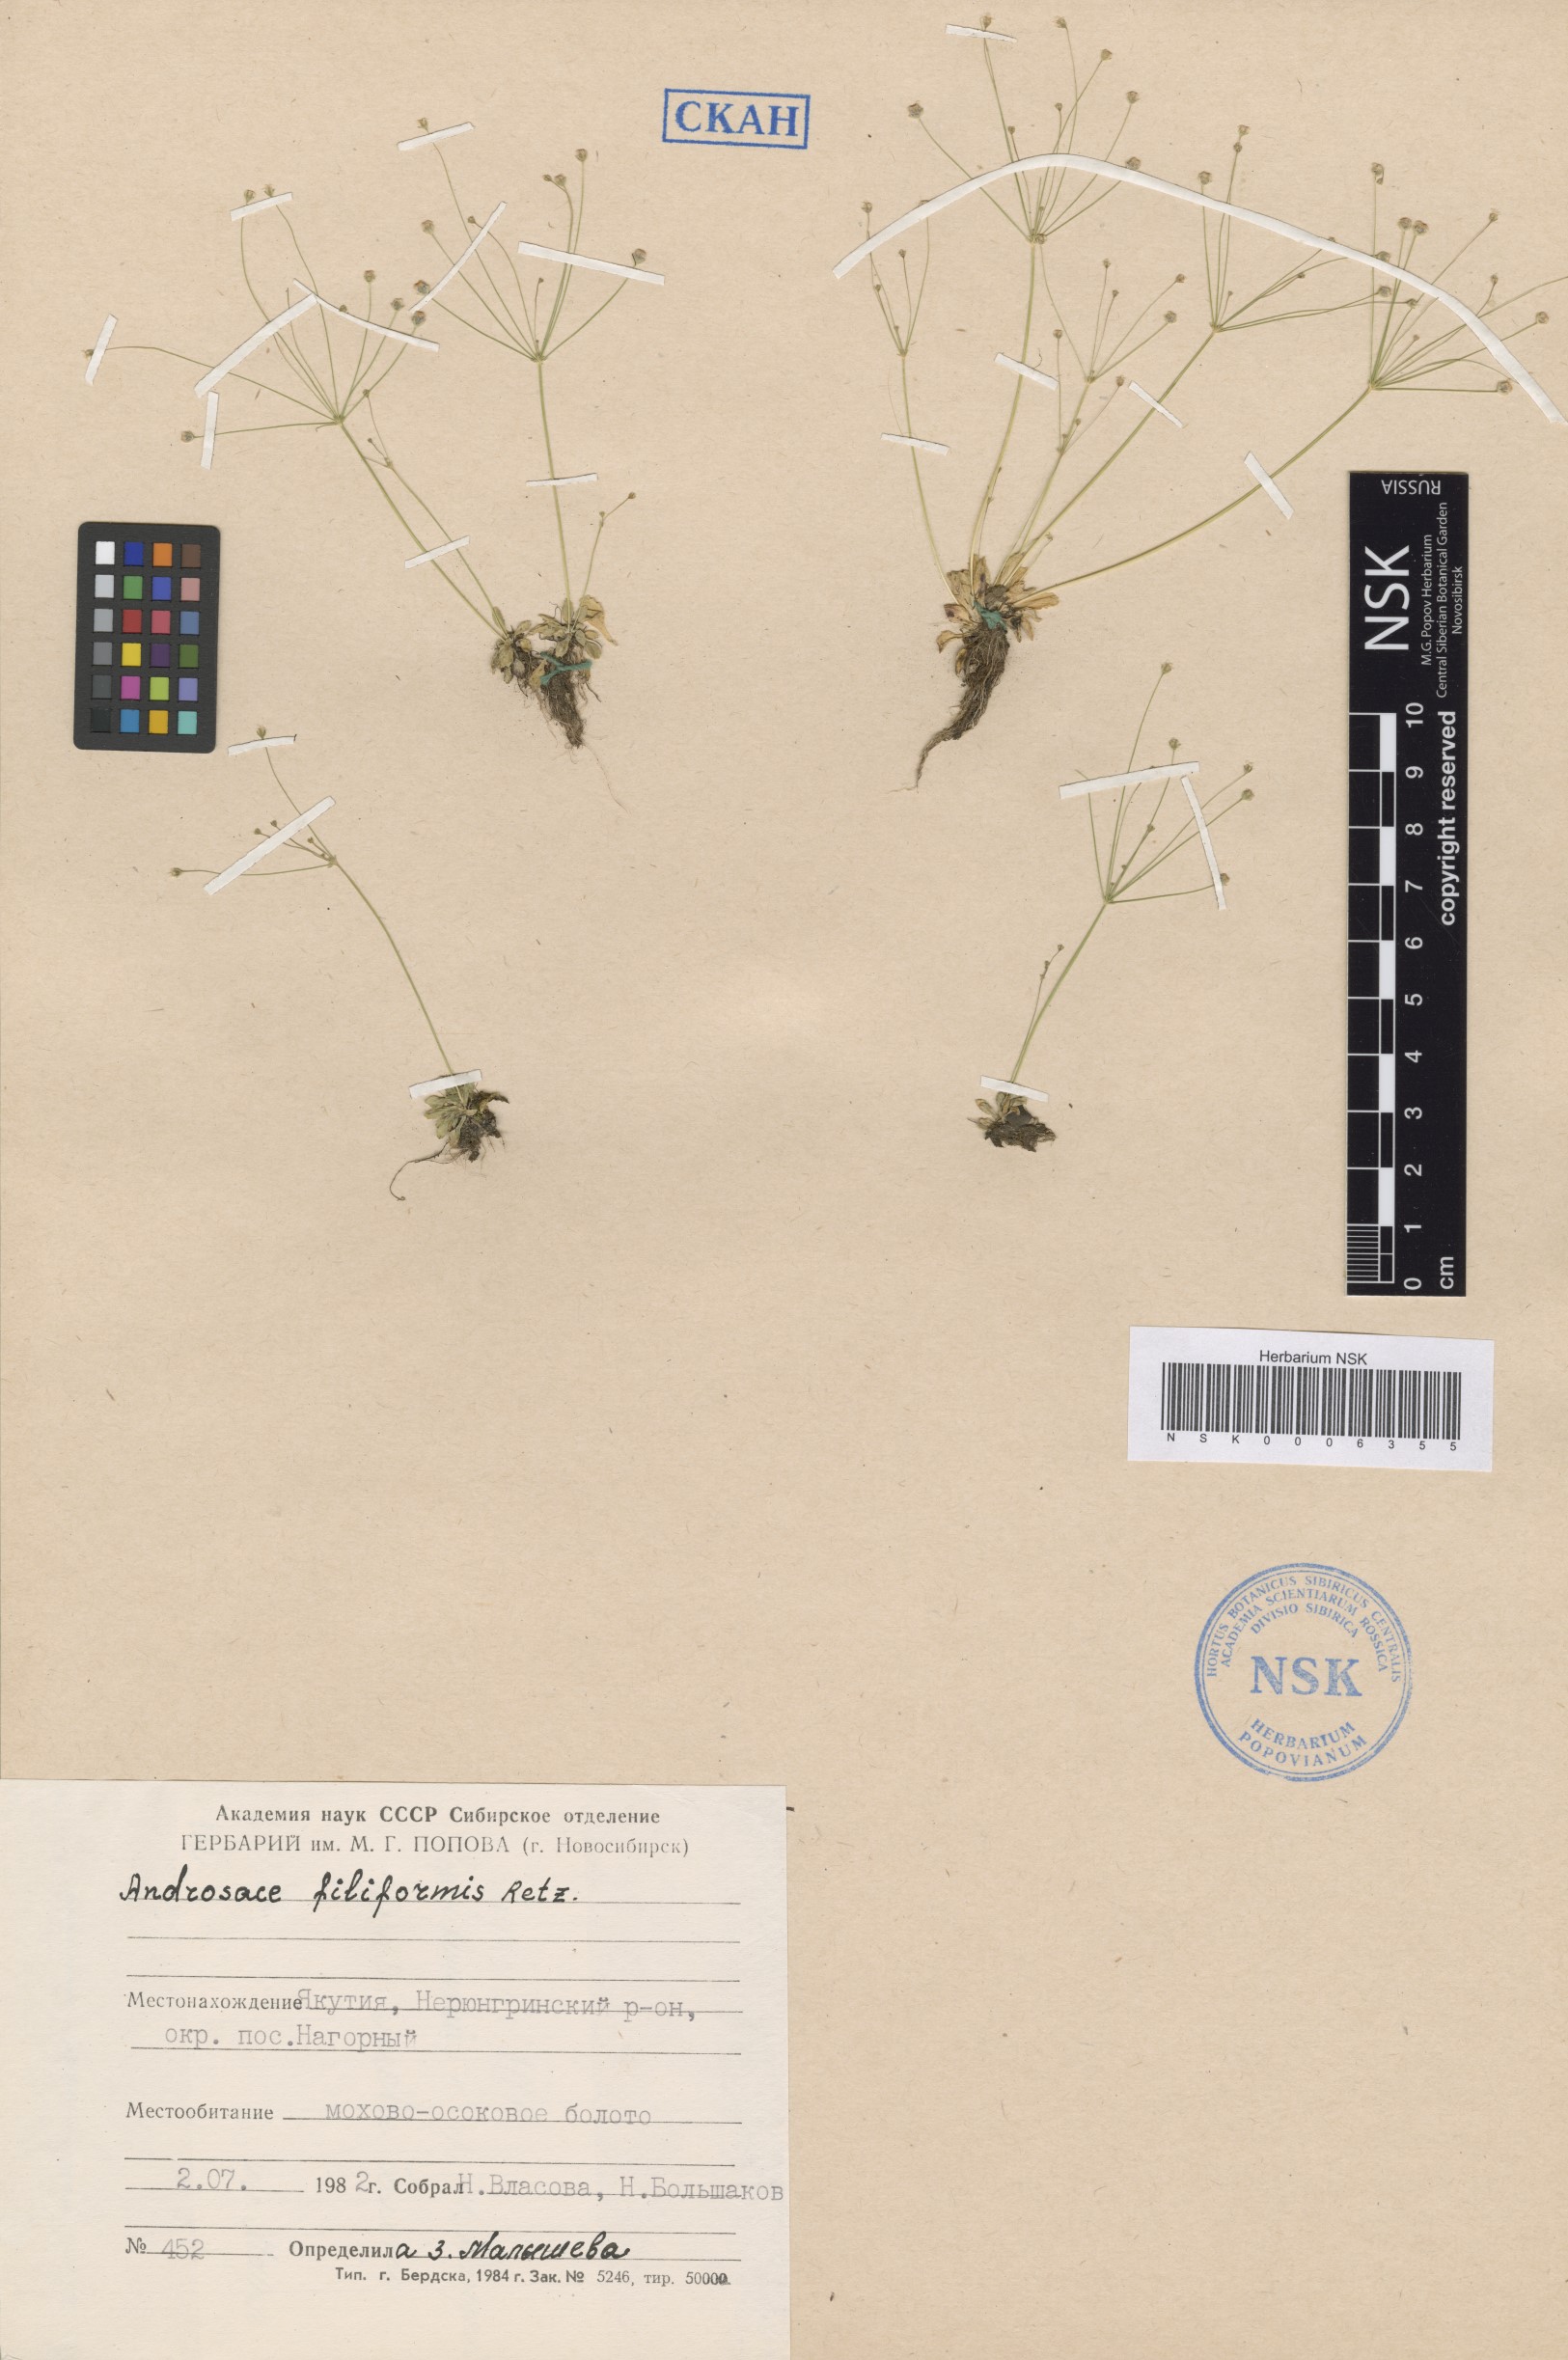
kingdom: Plantae
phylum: Tracheophyta
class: Magnoliopsida
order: Ericales
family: Primulaceae
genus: Androsace
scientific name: Androsace filiformis
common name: Filiform rock jasmine
